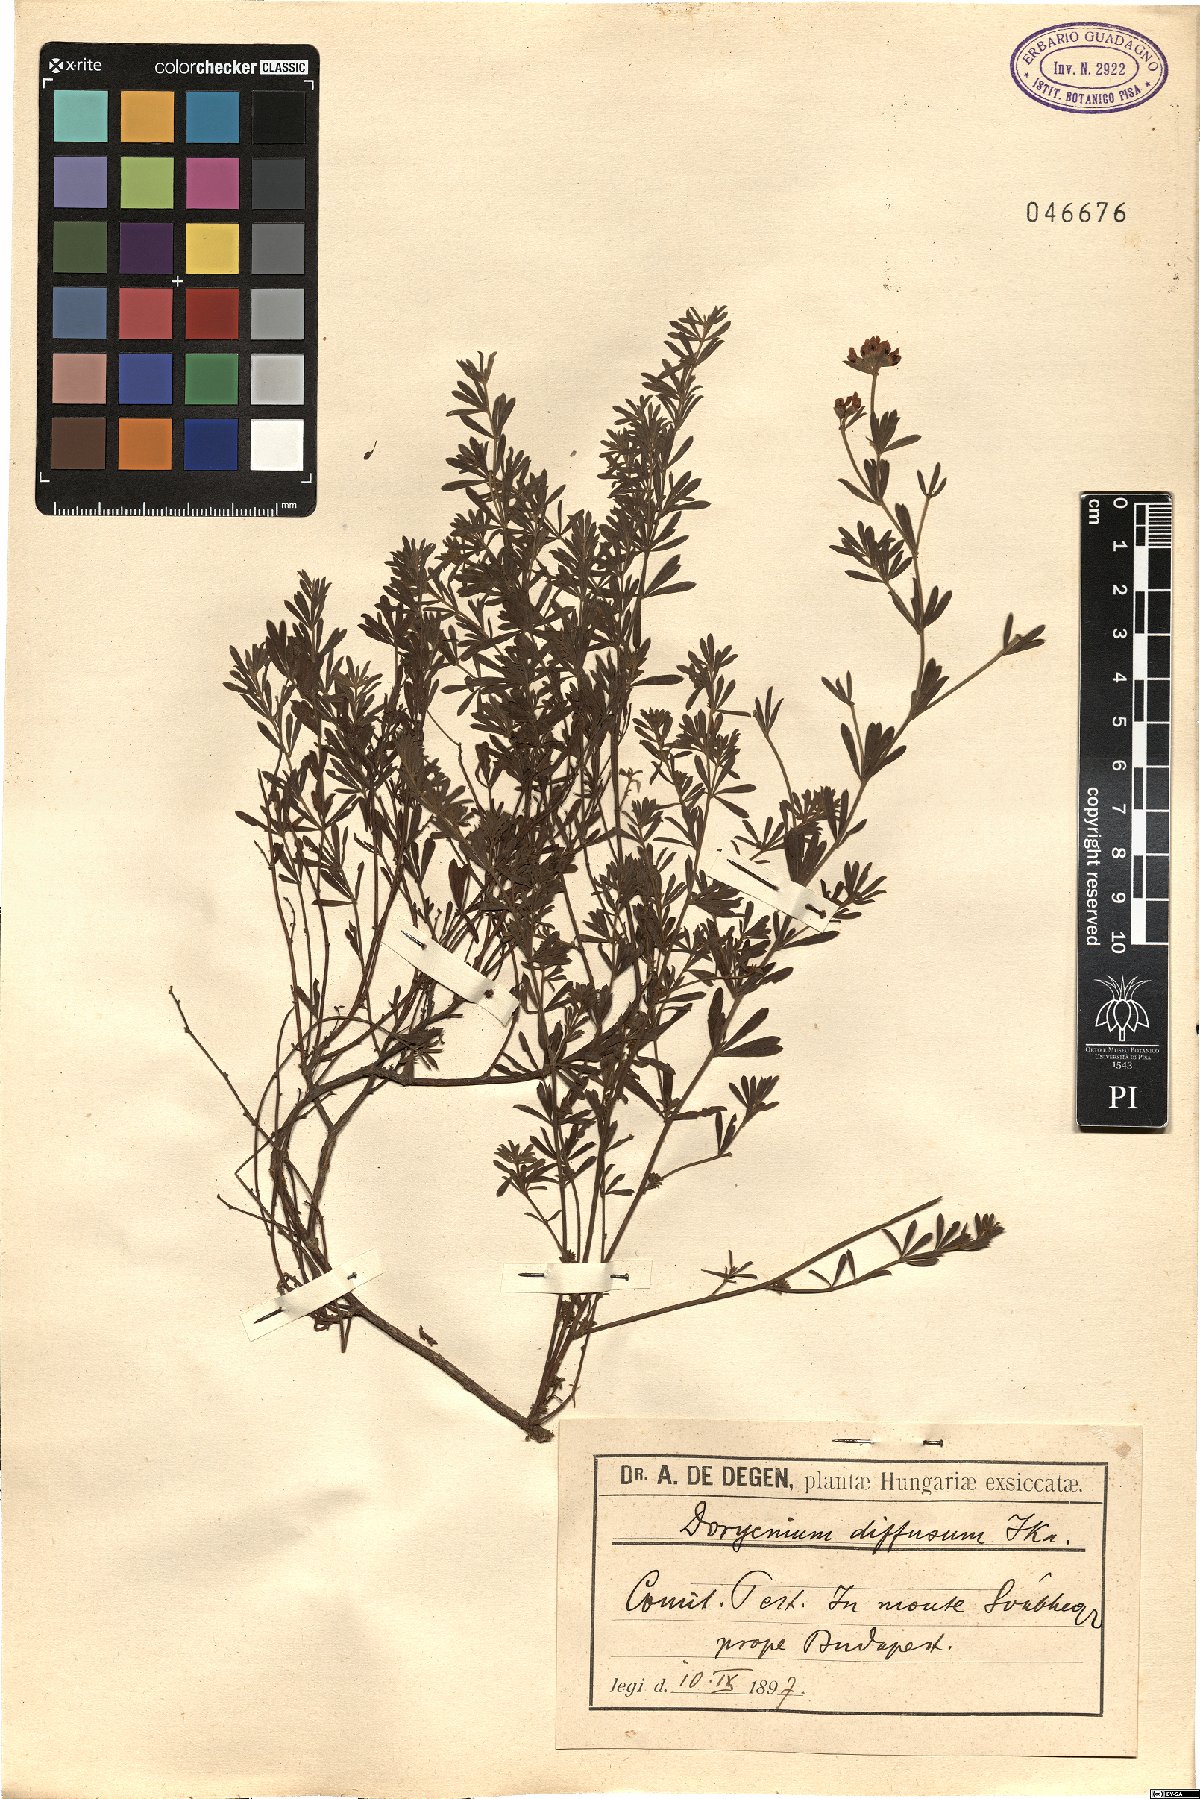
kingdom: Plantae
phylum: Tracheophyta
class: Magnoliopsida
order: Fabales
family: Fabaceae
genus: Lotus
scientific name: Lotus herbaceus
